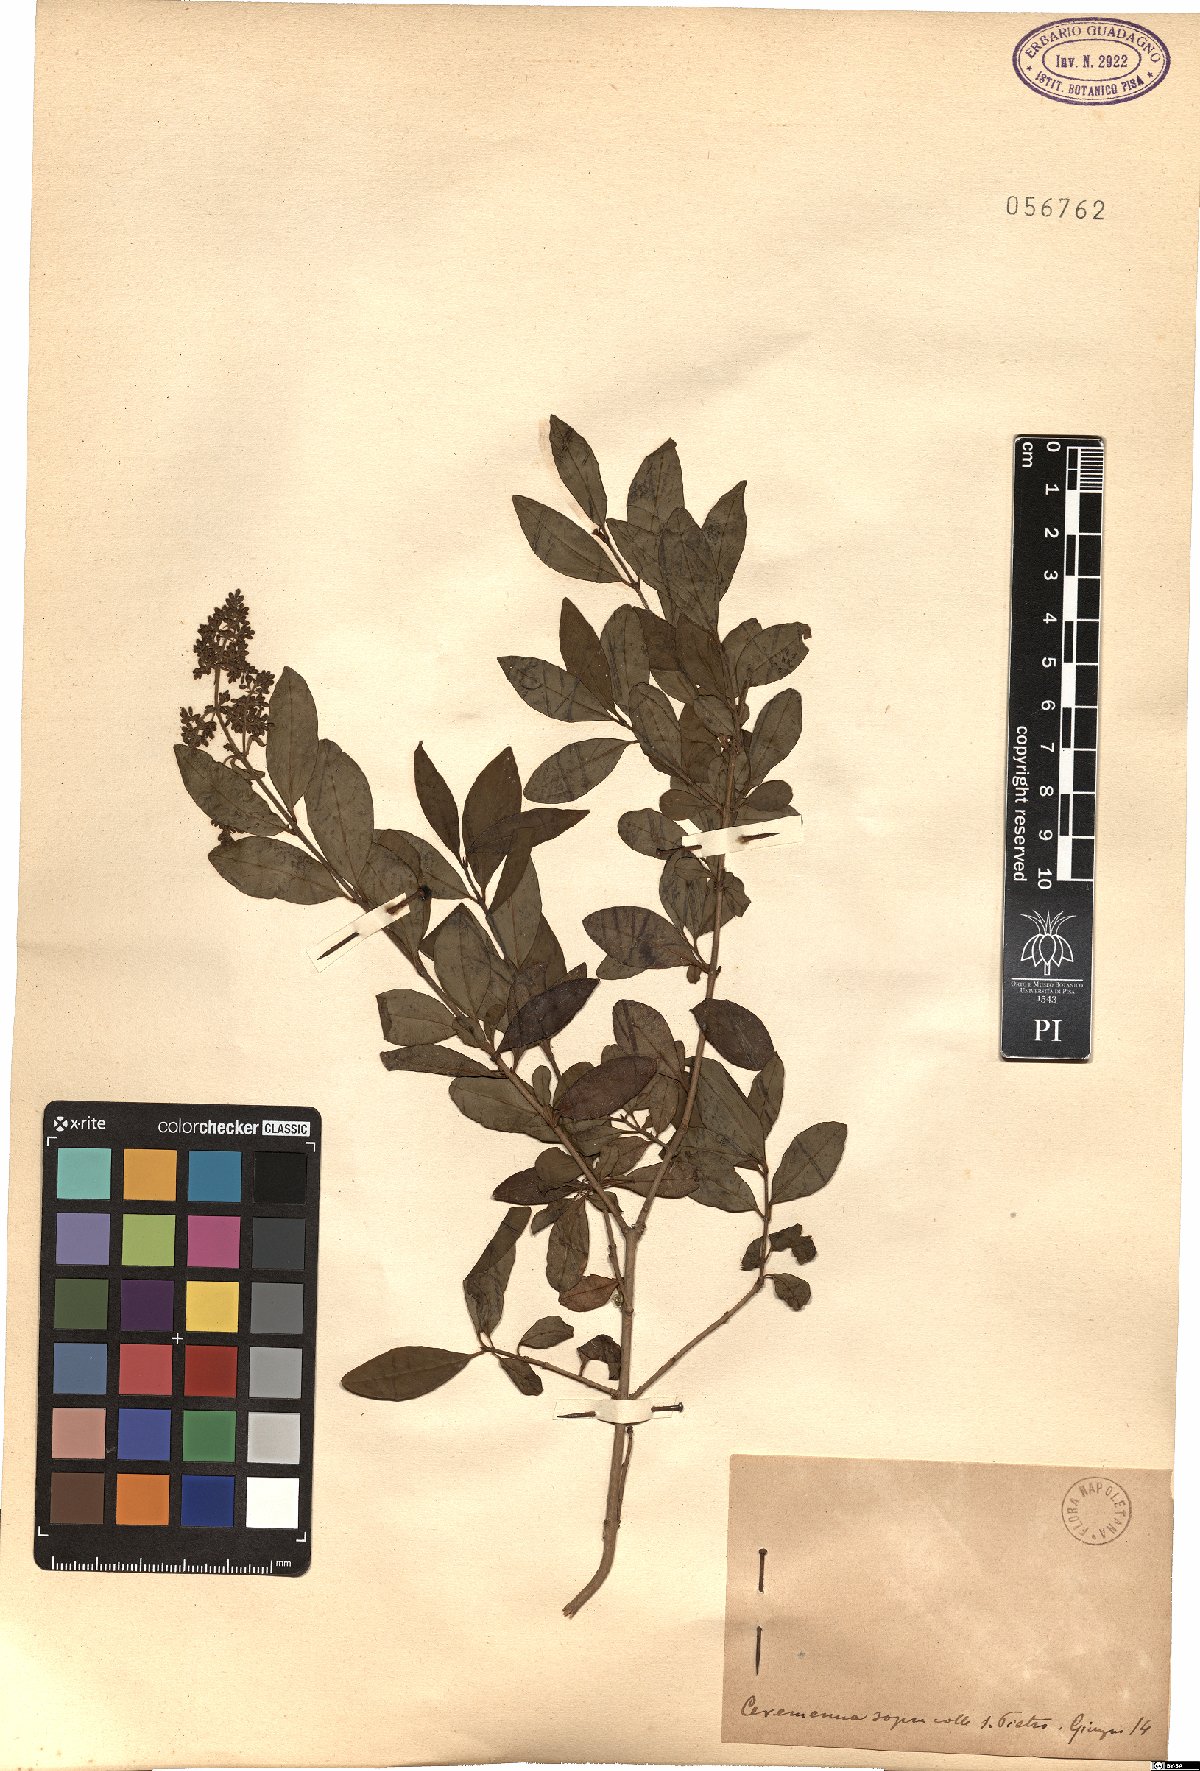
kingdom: Plantae
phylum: Tracheophyta
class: Magnoliopsida
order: Lamiales
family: Oleaceae
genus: Ligustrum
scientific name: Ligustrum
